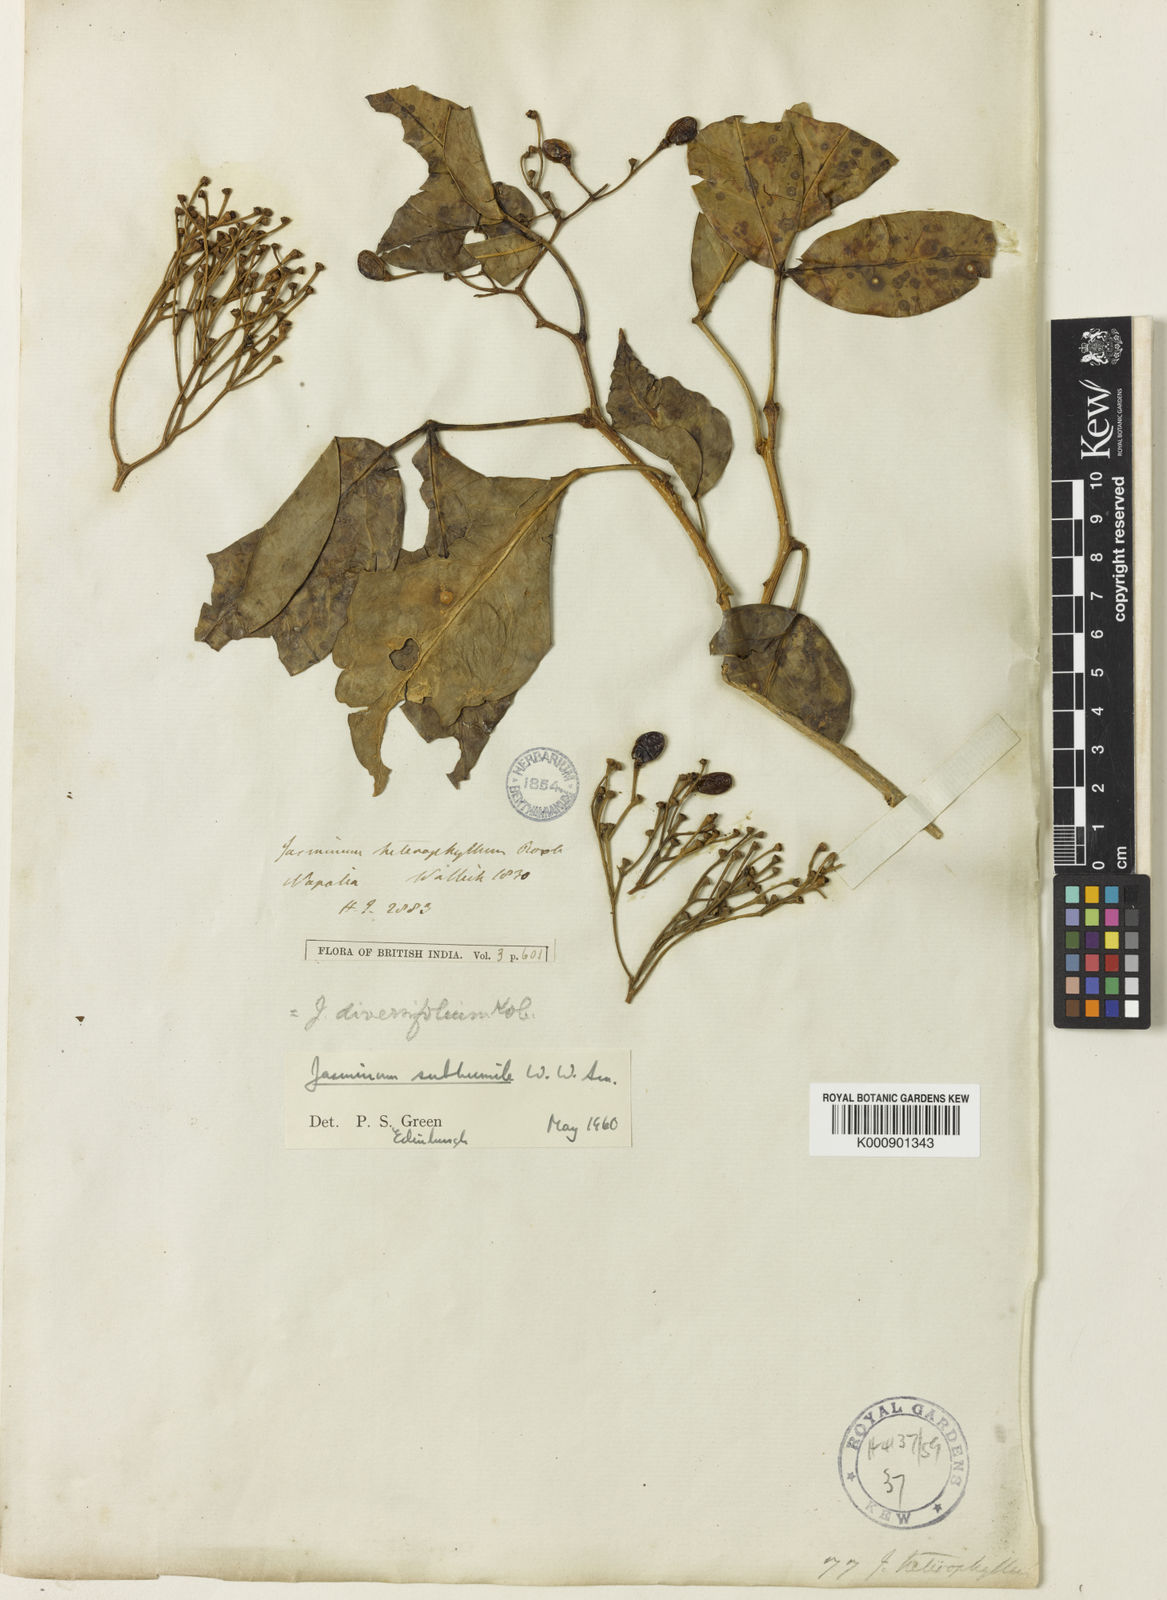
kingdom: Plantae
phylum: Tracheophyta
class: Magnoliopsida
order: Lamiales
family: Oleaceae
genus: Chrysojasminum
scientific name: Chrysojasminum subhumile
